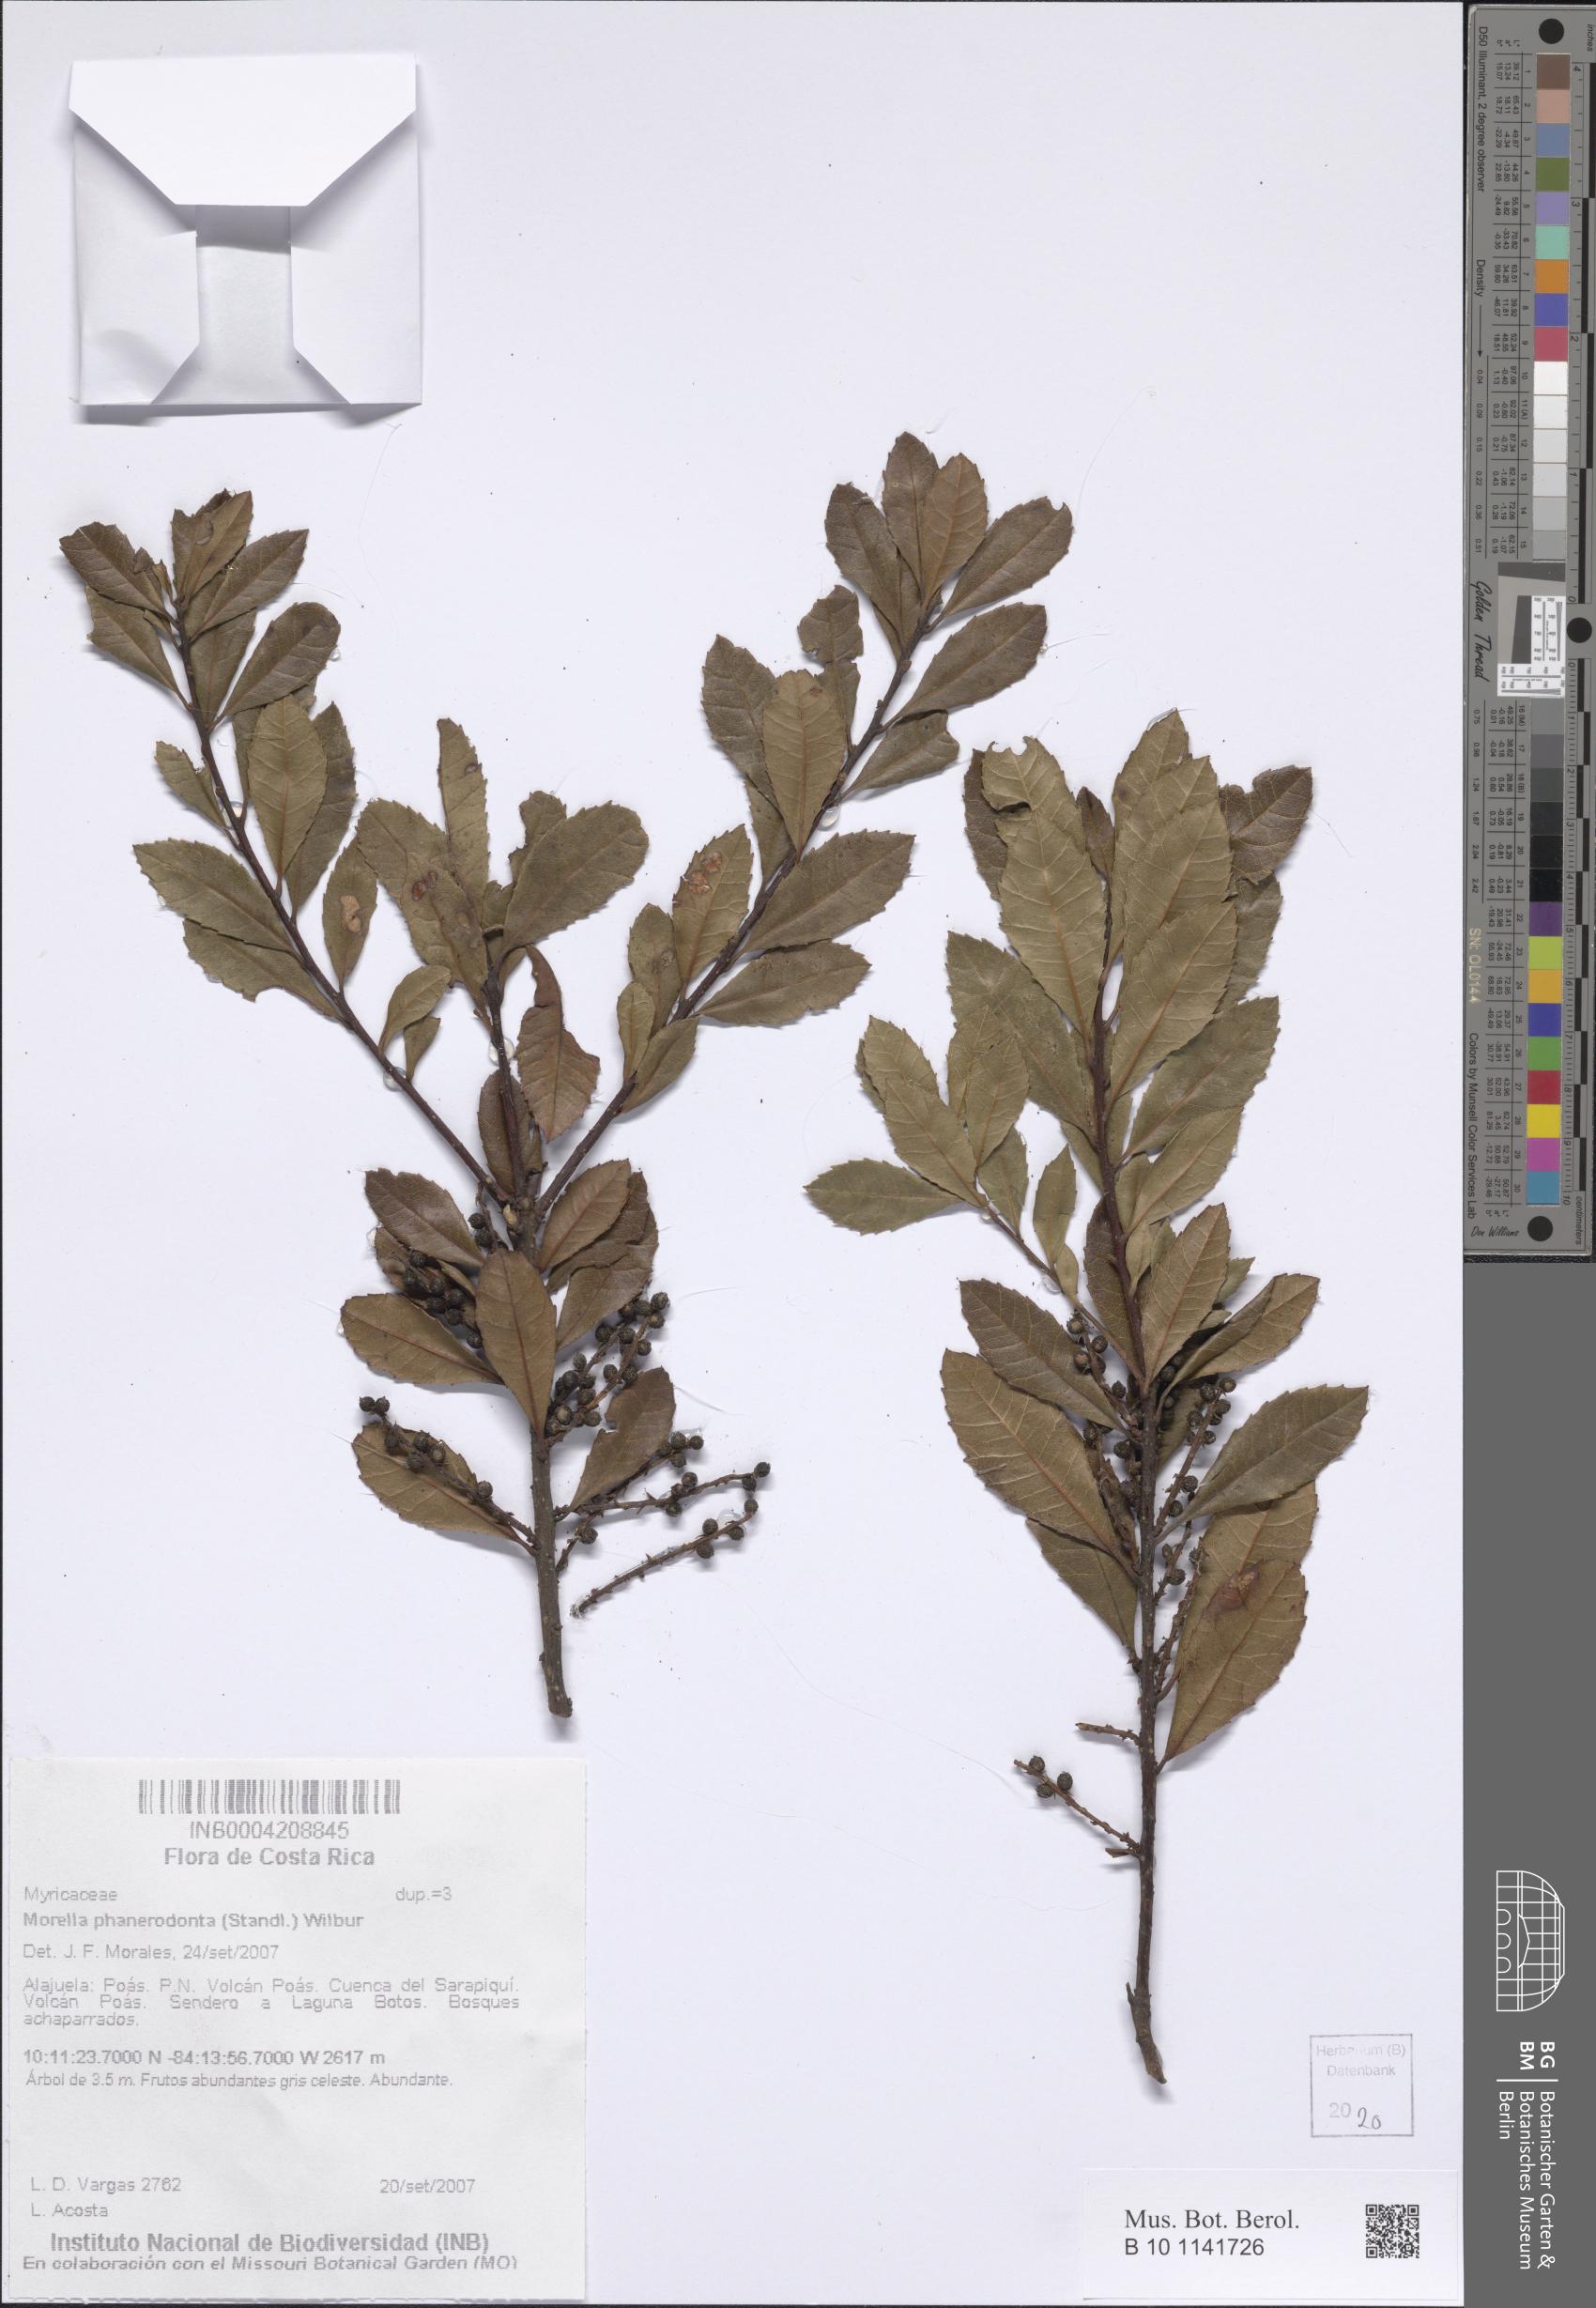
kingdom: Plantae
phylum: Tracheophyta
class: Magnoliopsida
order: Fagales
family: Myricaceae
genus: Morella
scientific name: Morella phanerodonta
